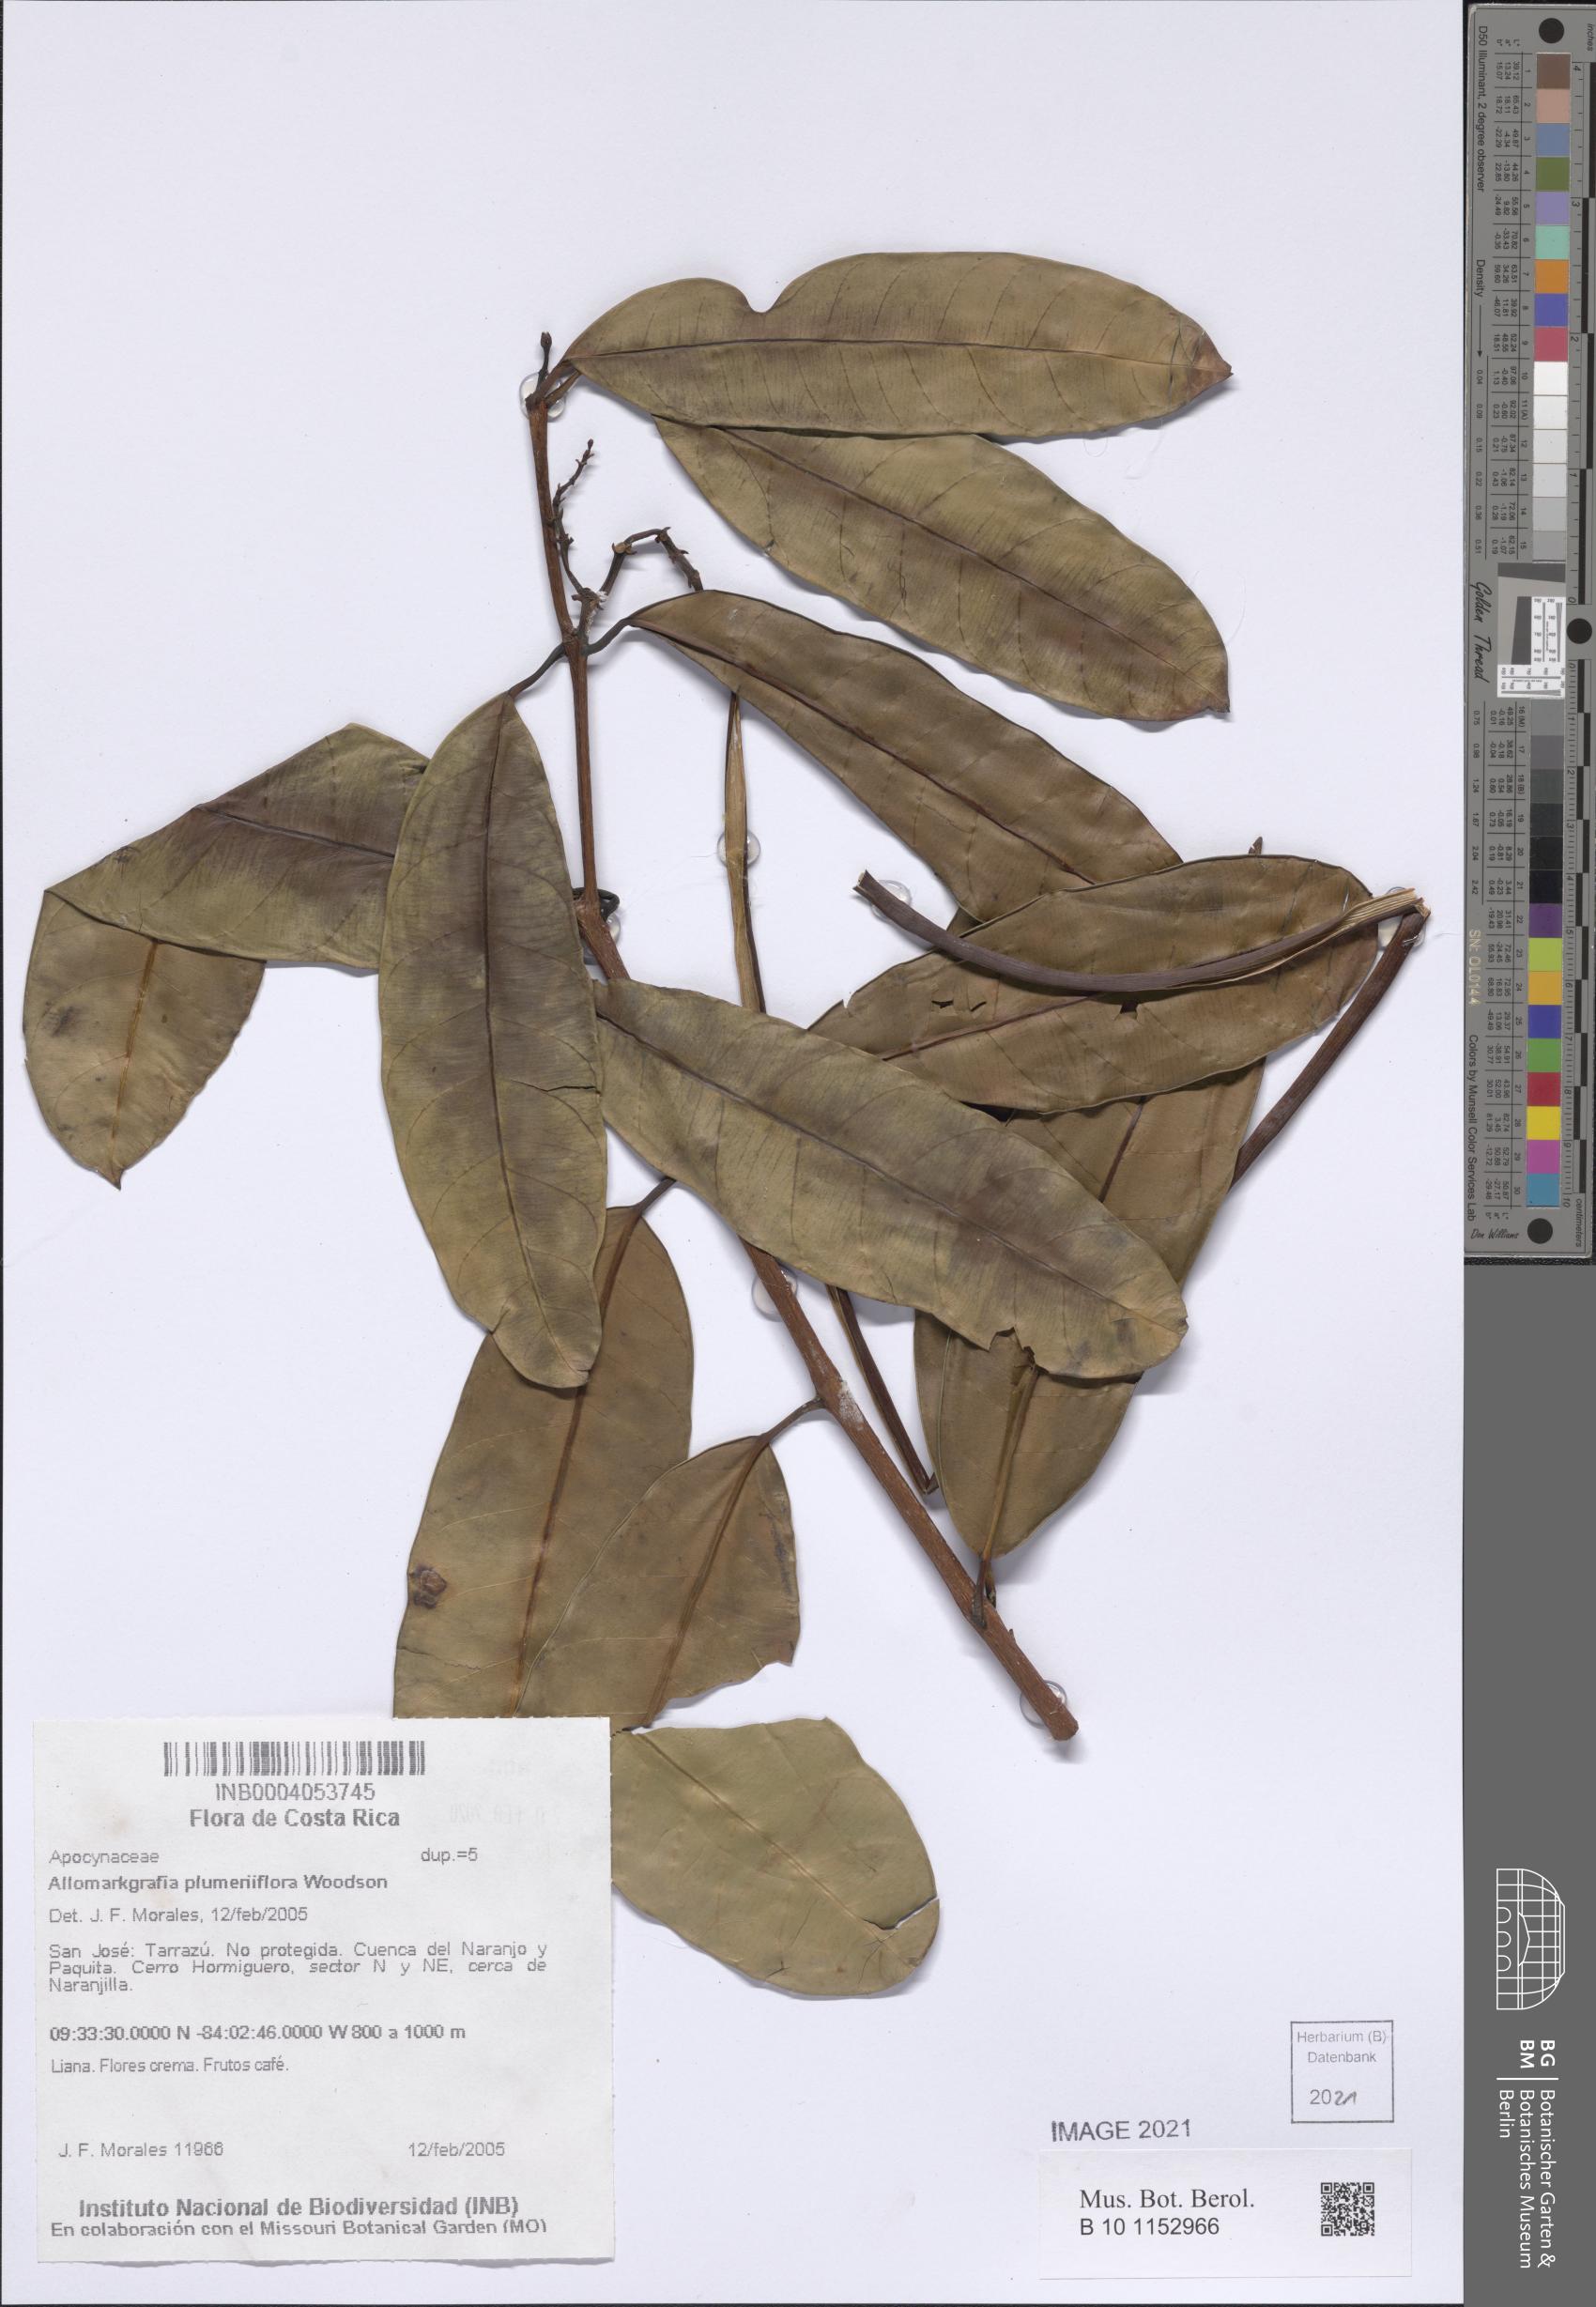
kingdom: Plantae
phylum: Tracheophyta
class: Magnoliopsida
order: Gentianales
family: Apocynaceae
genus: Allomarkgrafia
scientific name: Allomarkgrafia plumeriiflora
